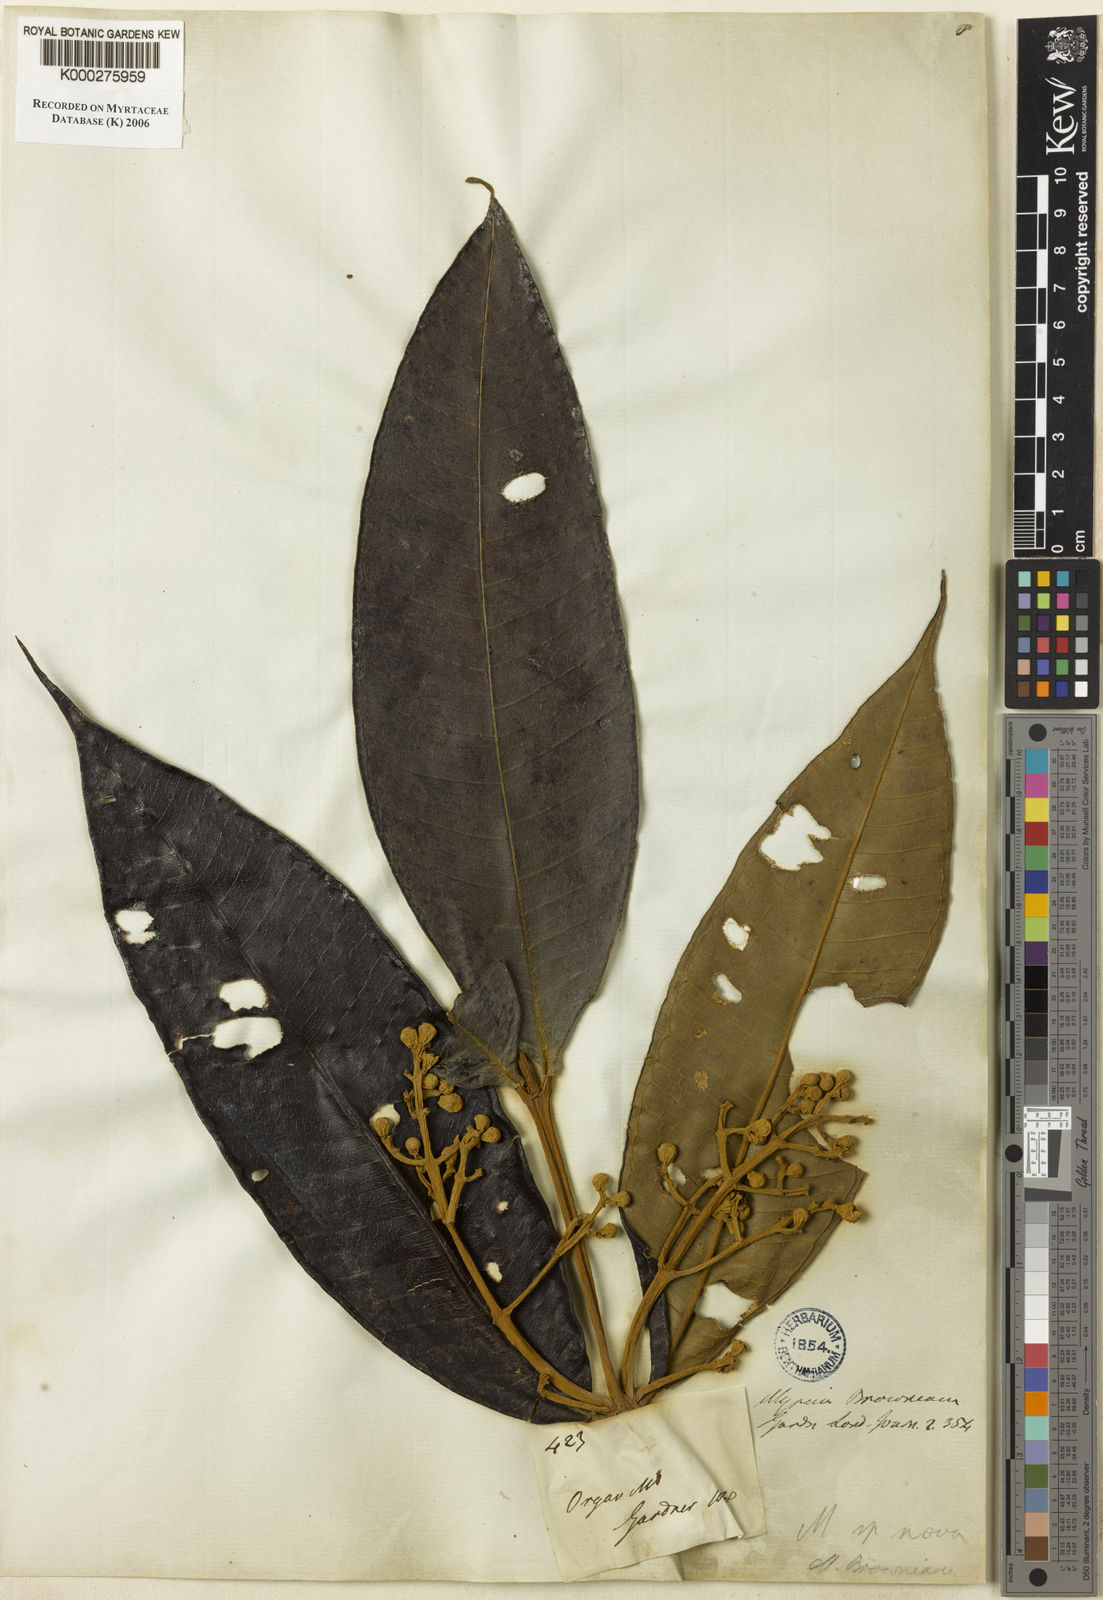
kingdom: Plantae
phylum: Tracheophyta
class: Magnoliopsida
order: Myrtales
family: Myrtaceae
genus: Myrcia
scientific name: Myrcia spectabilis
